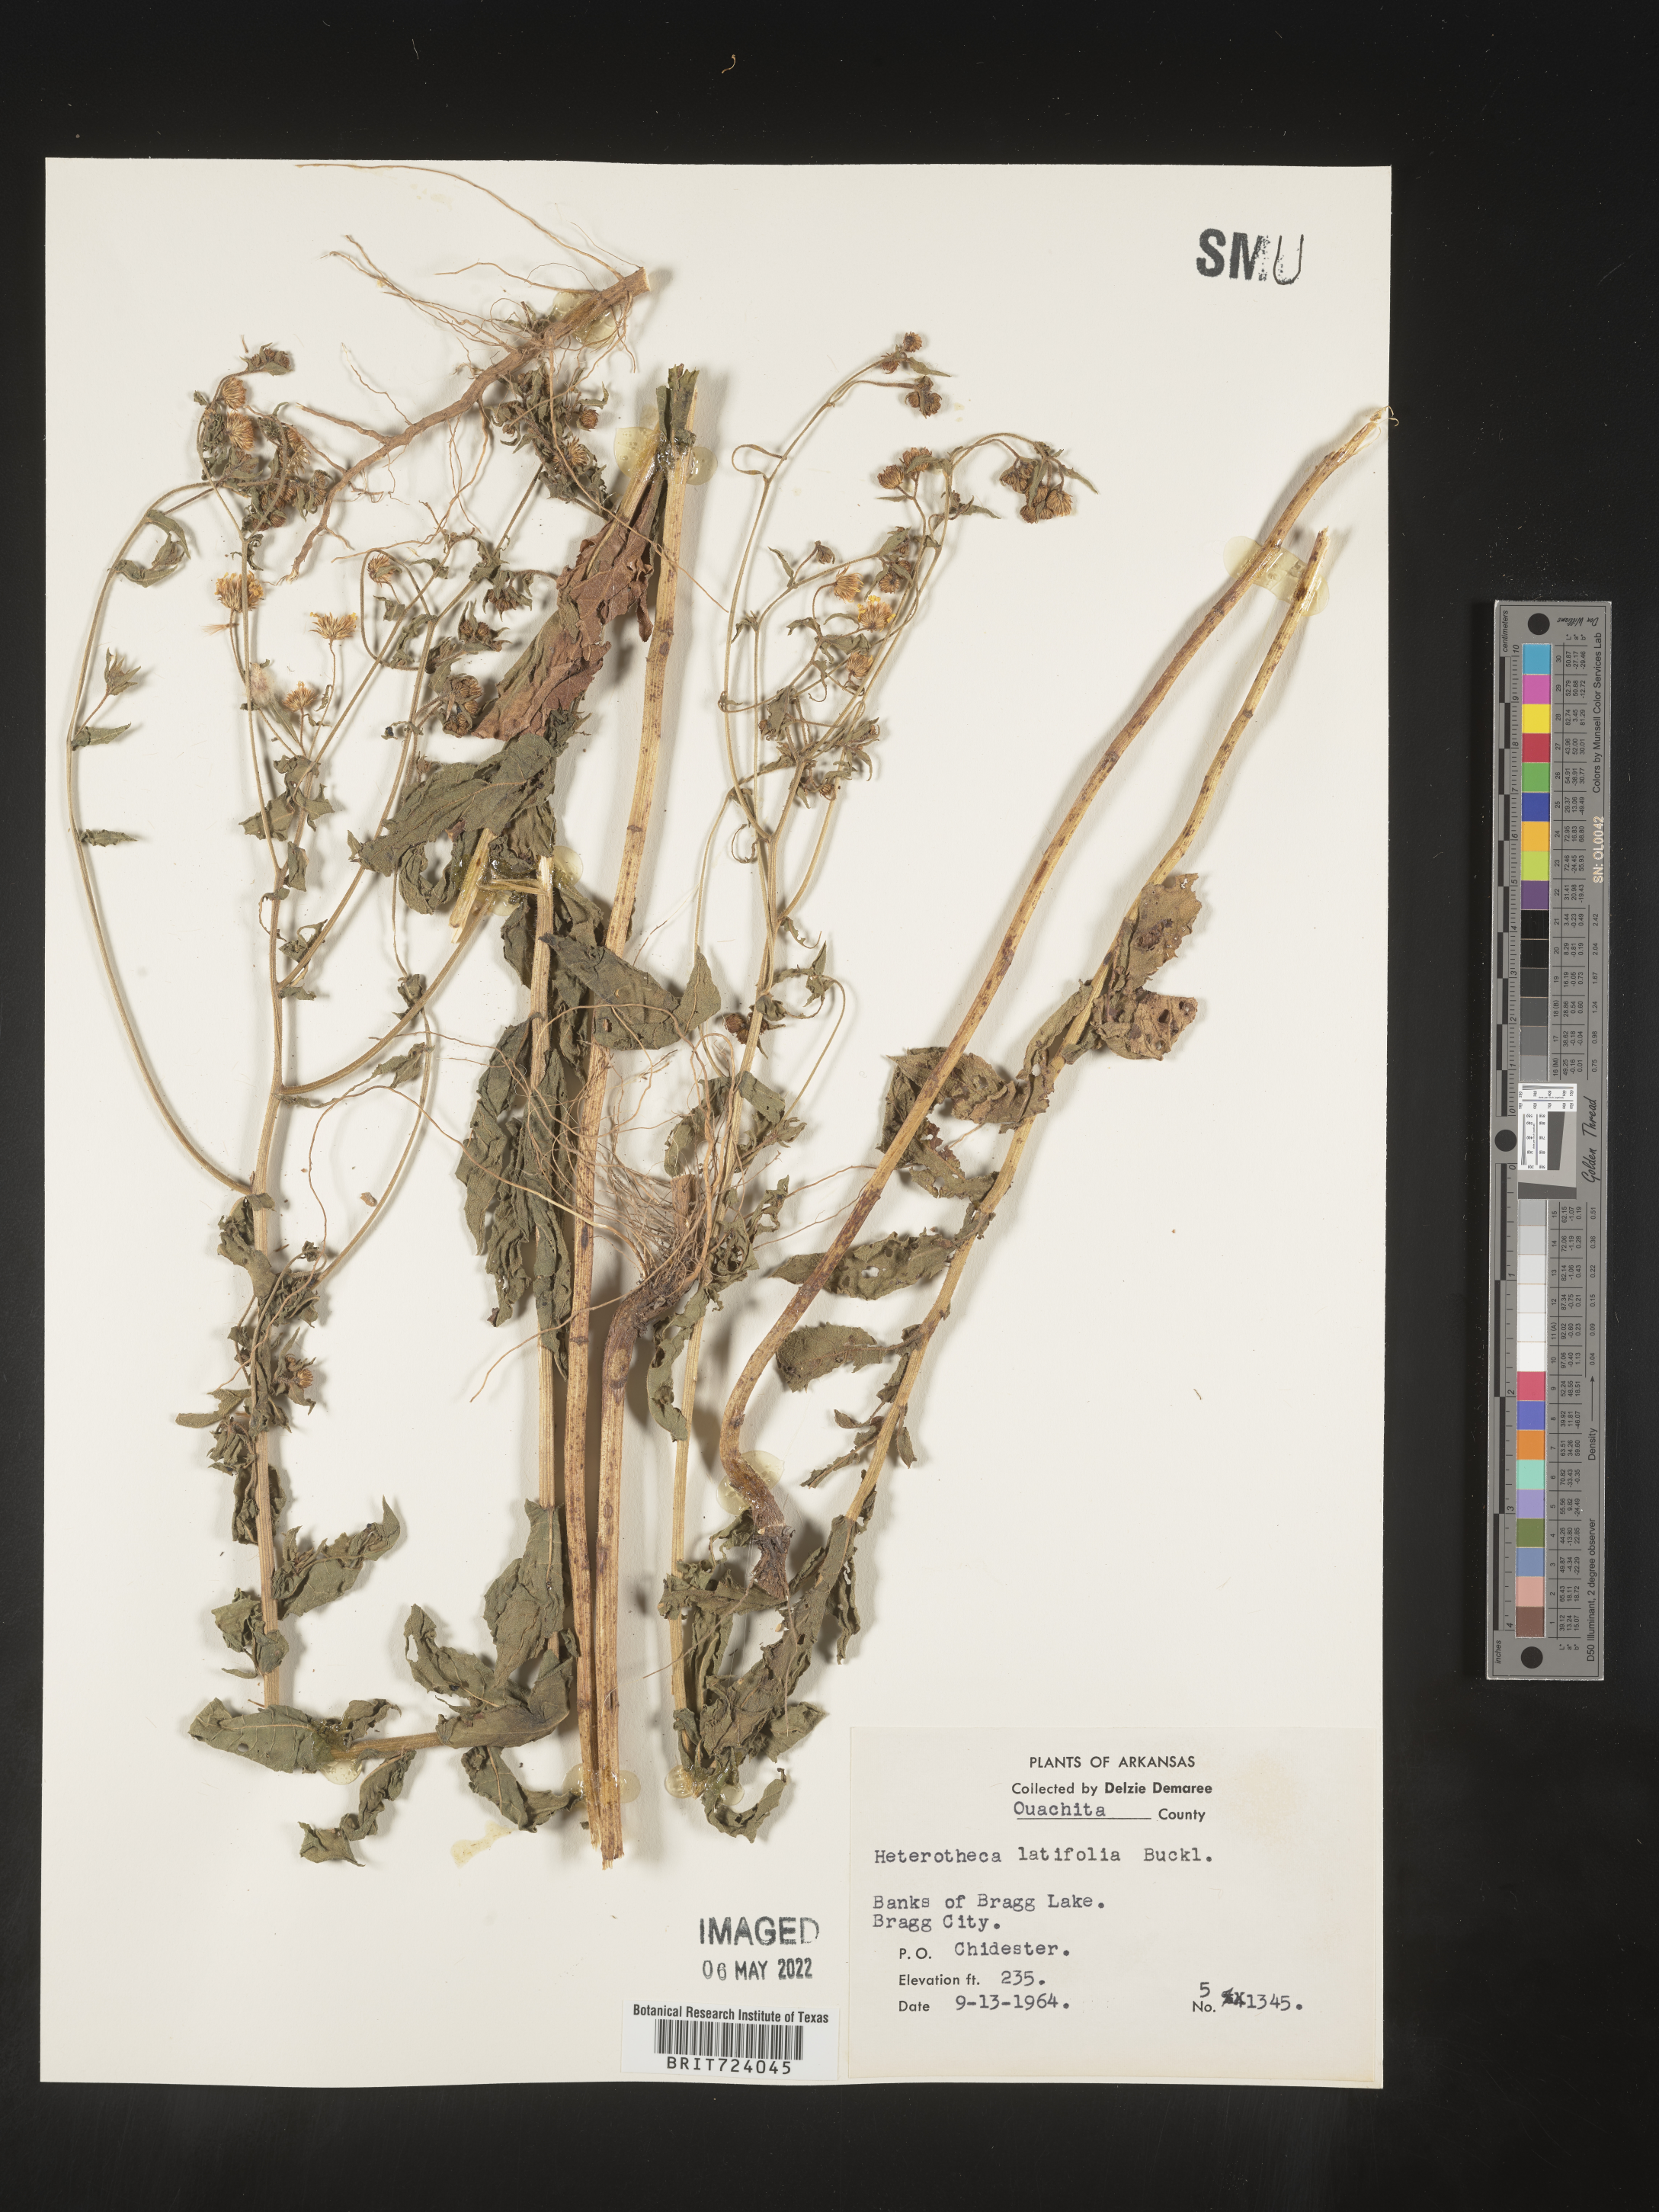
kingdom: Plantae
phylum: Tracheophyta
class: Magnoliopsida
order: Asterales
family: Asteraceae
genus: Heterotheca
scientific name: Heterotheca subaxillaris
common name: Camphorweed
